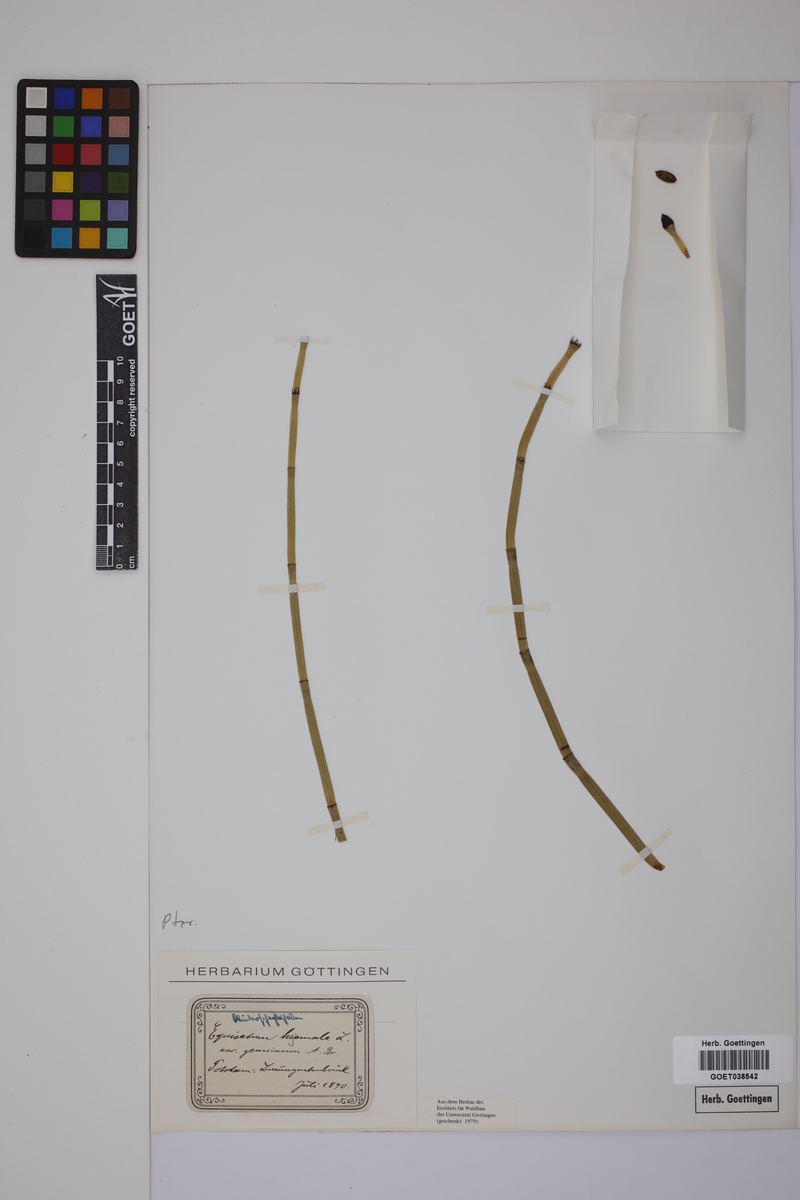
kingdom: Plantae
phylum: Tracheophyta
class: Polypodiopsida
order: Equisetales
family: Equisetaceae
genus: Equisetum
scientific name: Equisetum hyemale
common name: Rough horsetail
